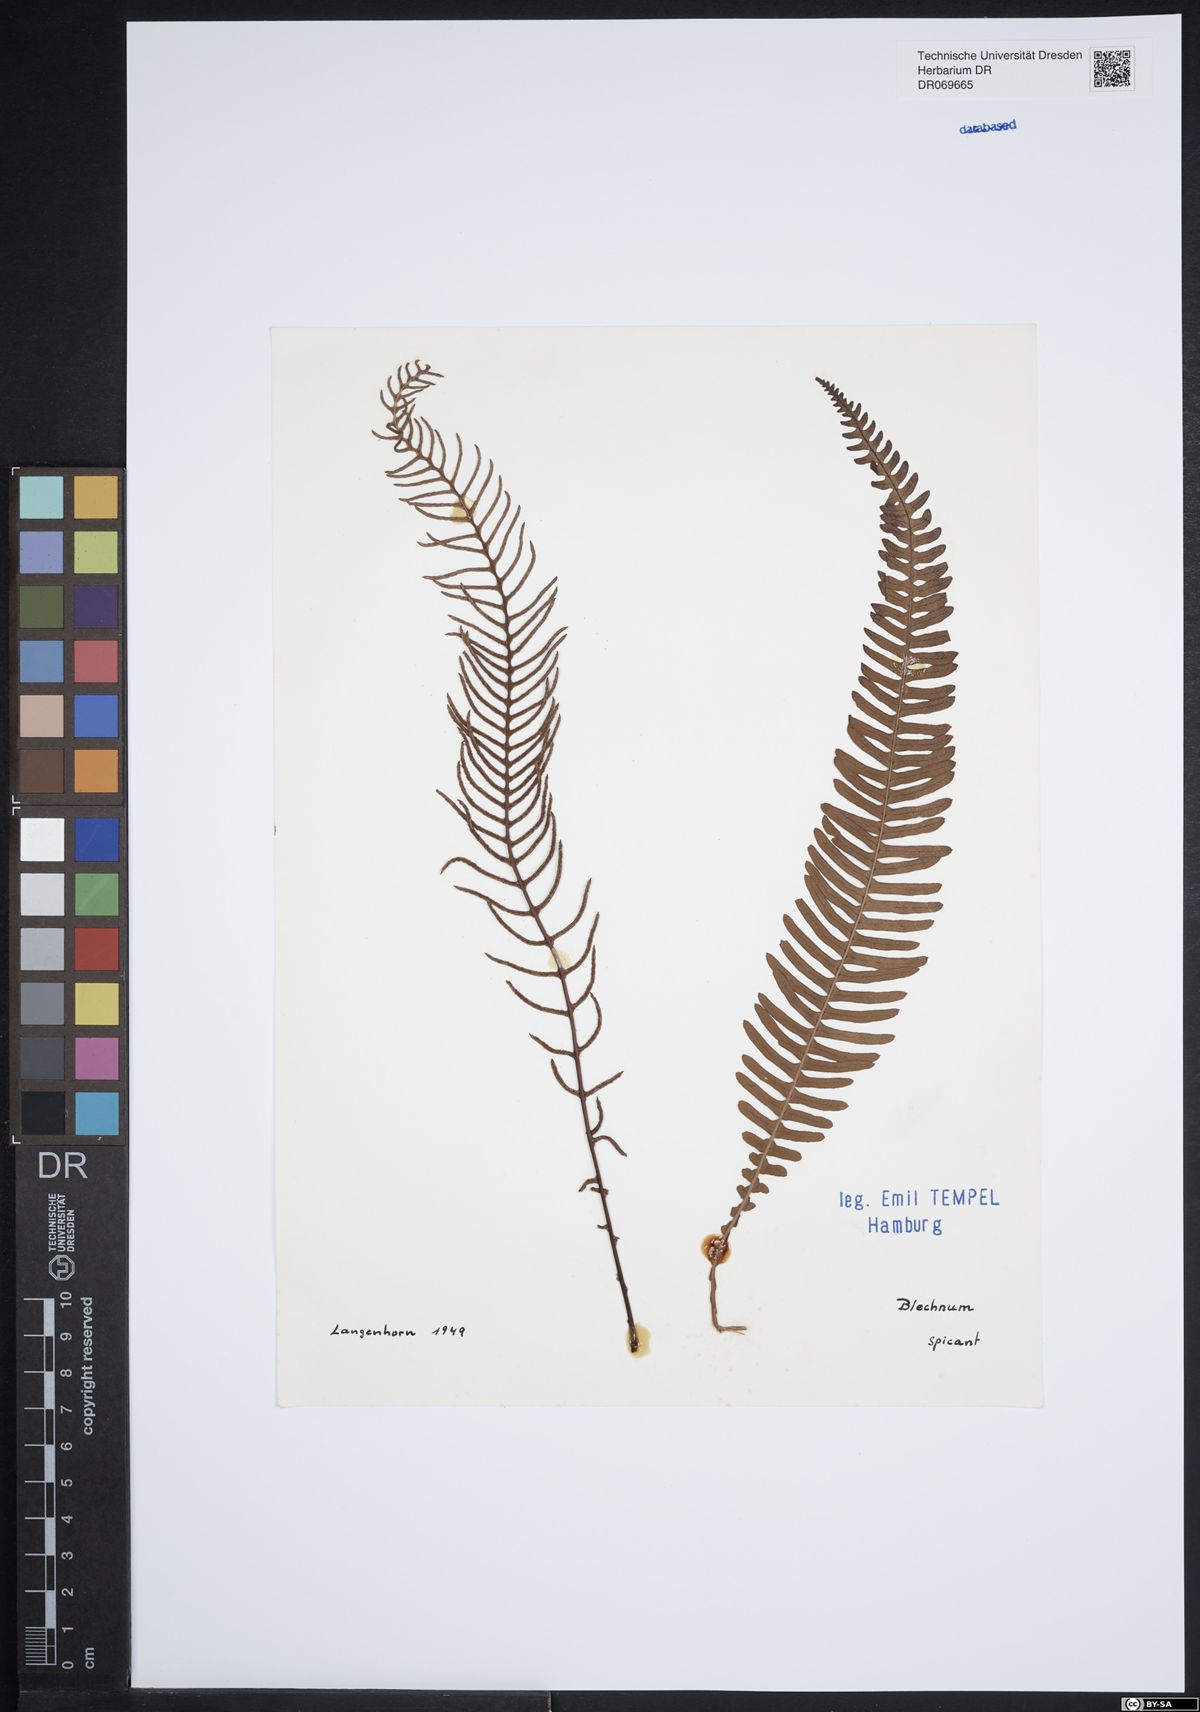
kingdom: Plantae
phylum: Tracheophyta
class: Polypodiopsida
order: Polypodiales
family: Blechnaceae
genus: Struthiopteris
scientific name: Struthiopteris spicant
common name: Deer fern
